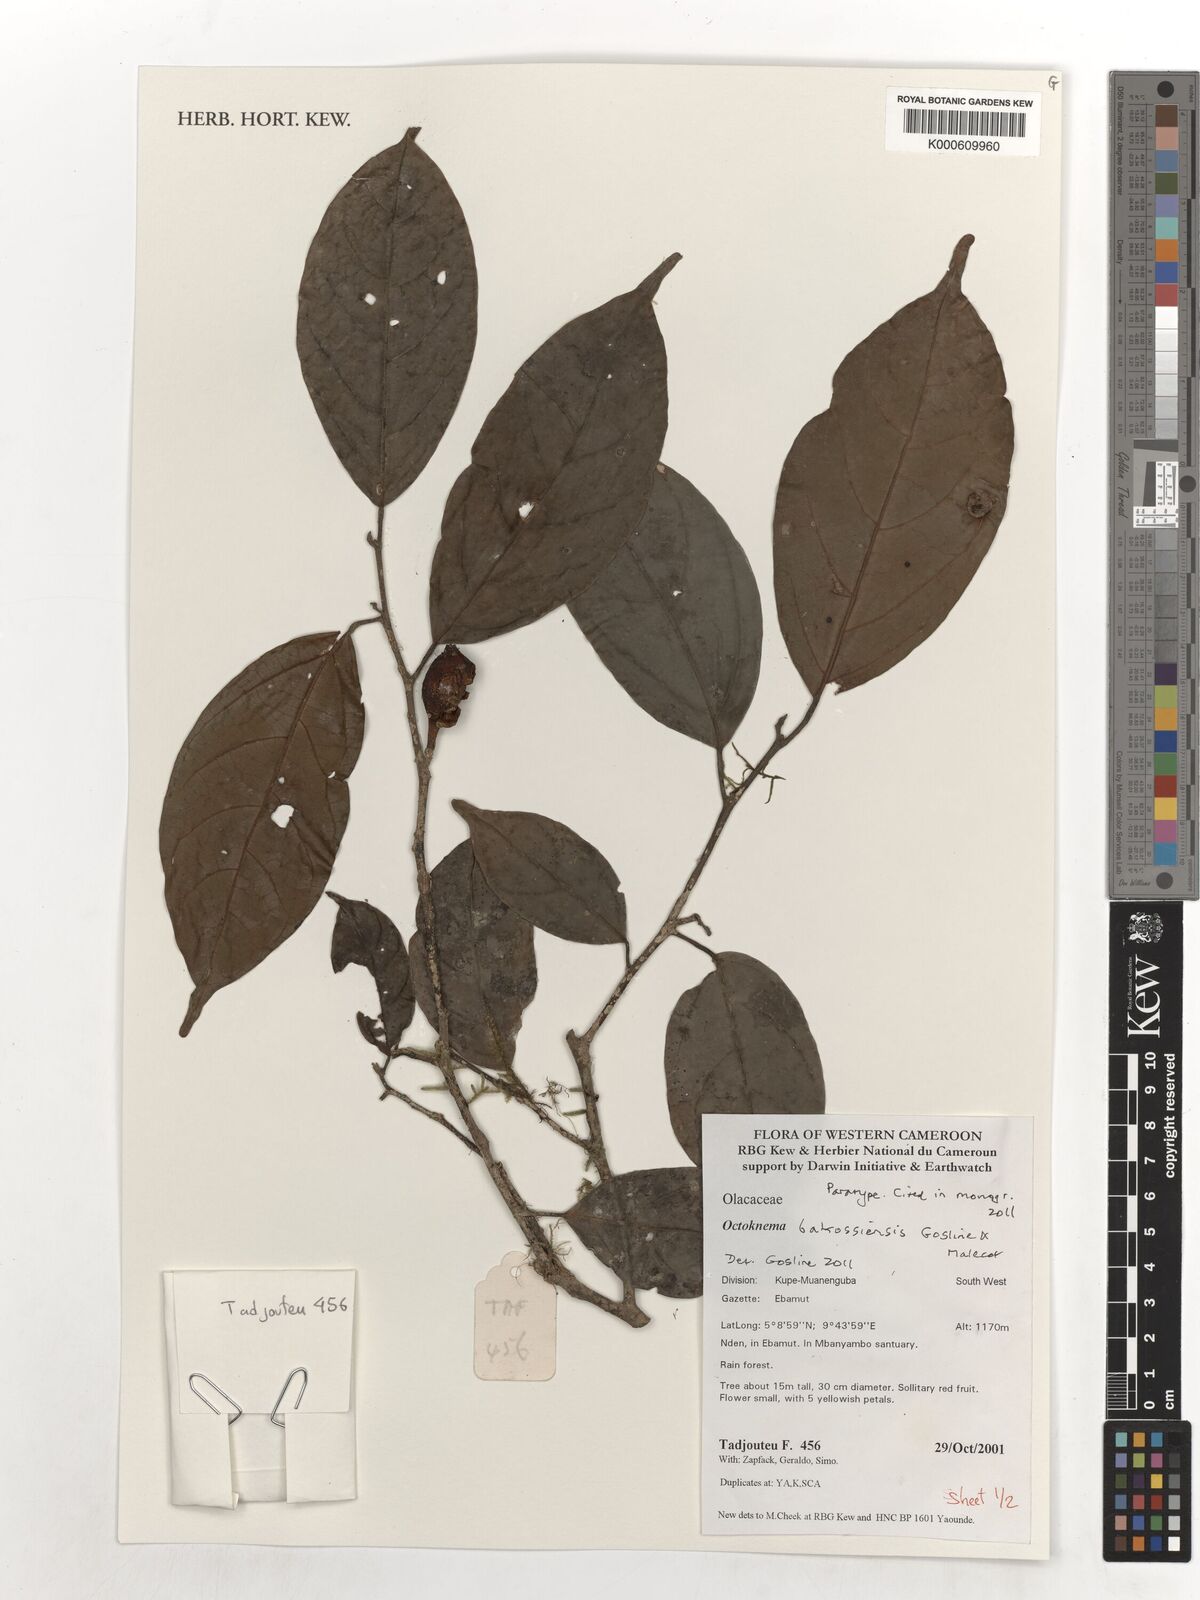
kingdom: Plantae
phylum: Tracheophyta
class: Magnoliopsida
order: Santalales
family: Octoknemaceae
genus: Octoknema
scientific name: Octoknema bakossiensis
